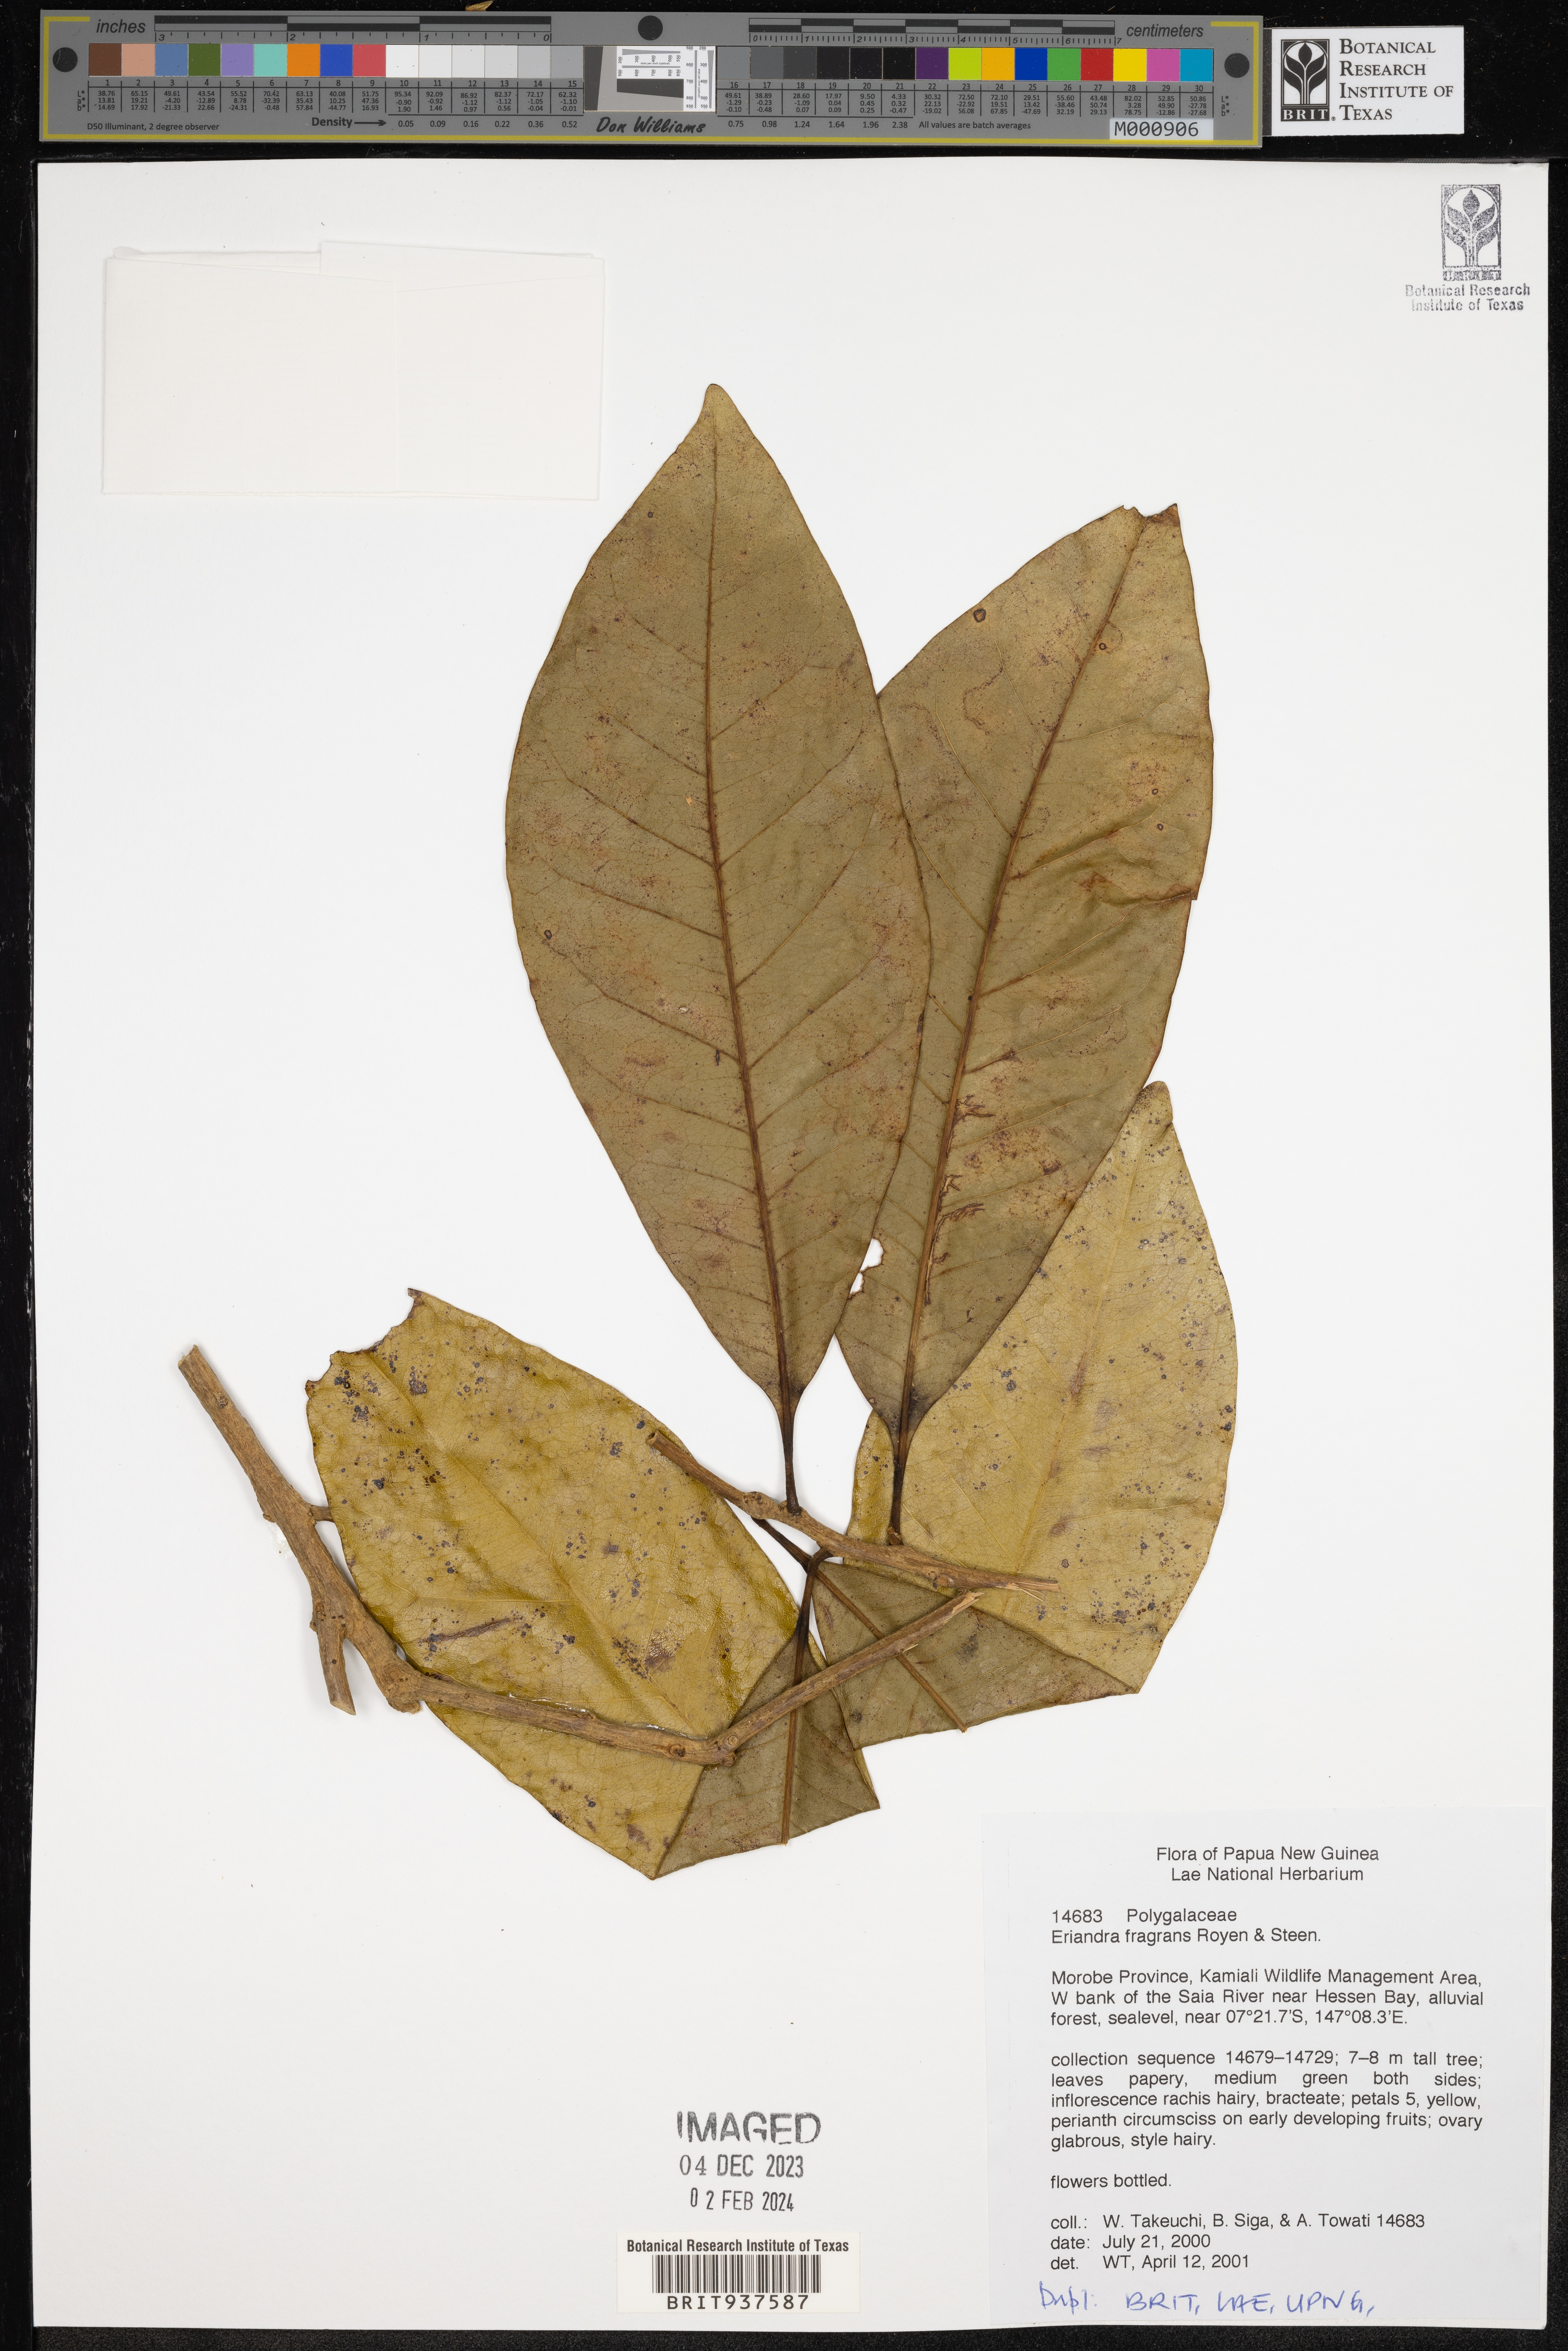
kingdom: Plantae
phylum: Tracheophyta
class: Magnoliopsida
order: Fabales
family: Polygalaceae
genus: Eriandra
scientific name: Eriandra
